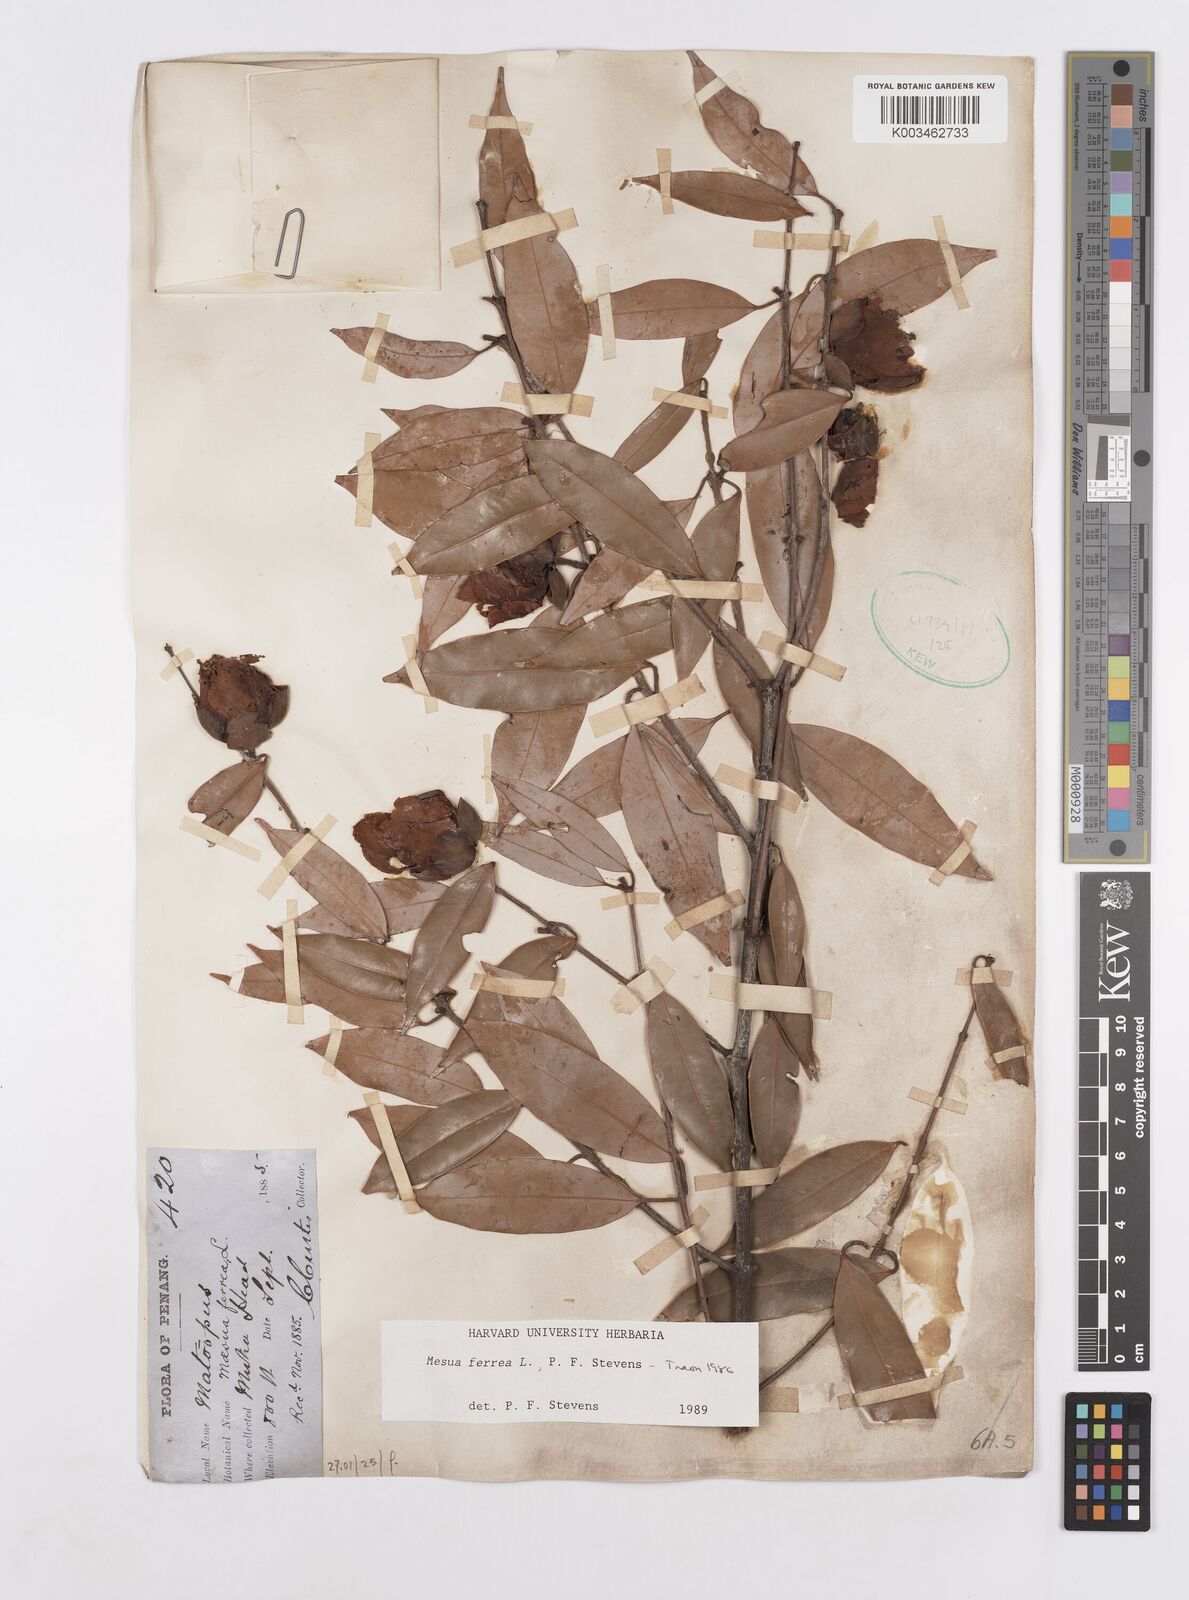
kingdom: Plantae
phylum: Tracheophyta
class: Magnoliopsida
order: Malpighiales
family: Calophyllaceae
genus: Mesua
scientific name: Mesua ferrea
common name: Mesua
